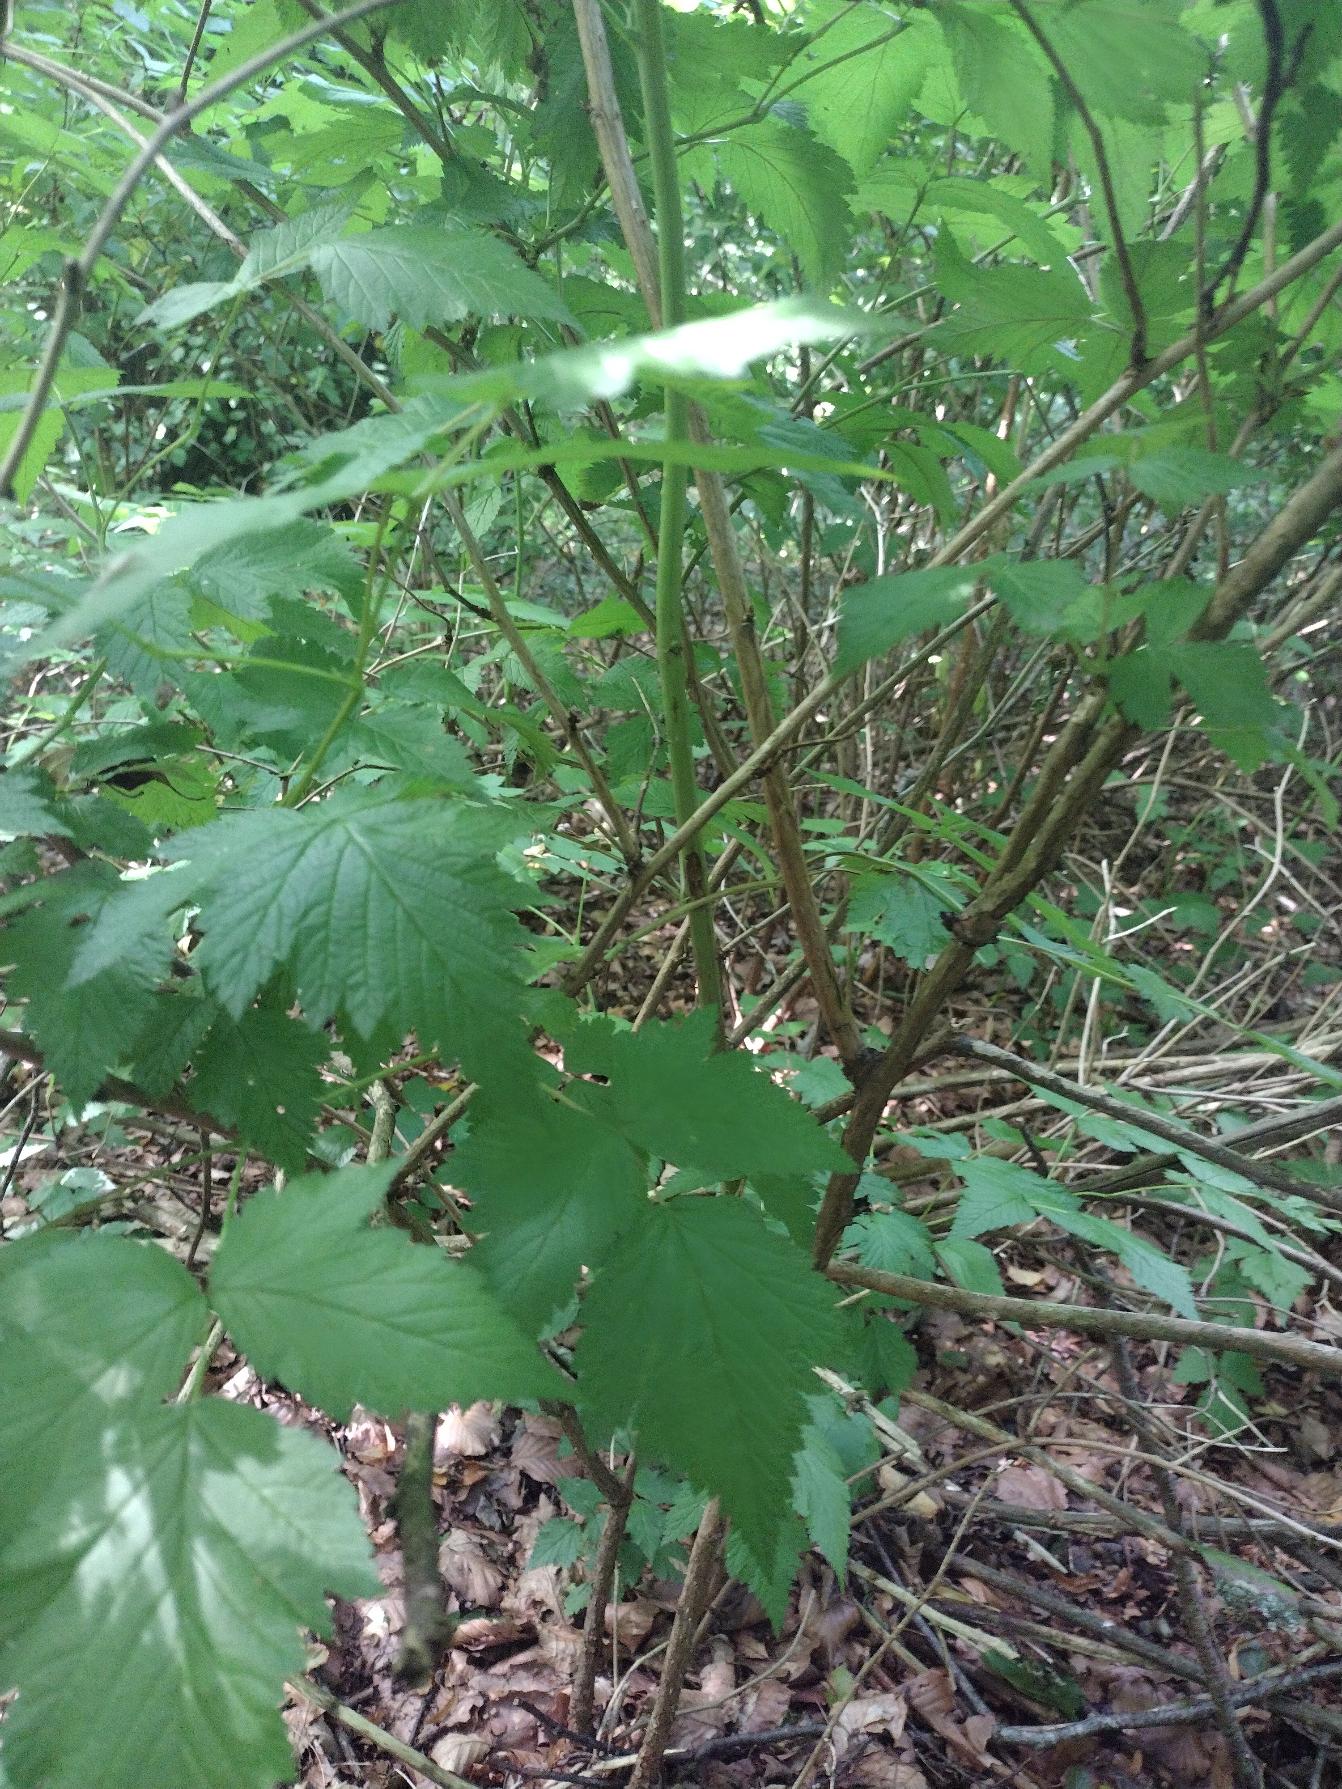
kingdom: Plantae
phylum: Tracheophyta
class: Magnoliopsida
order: Rosales
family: Rosaceae
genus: Rubus
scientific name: Rubus spectabilis
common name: Laksebær
